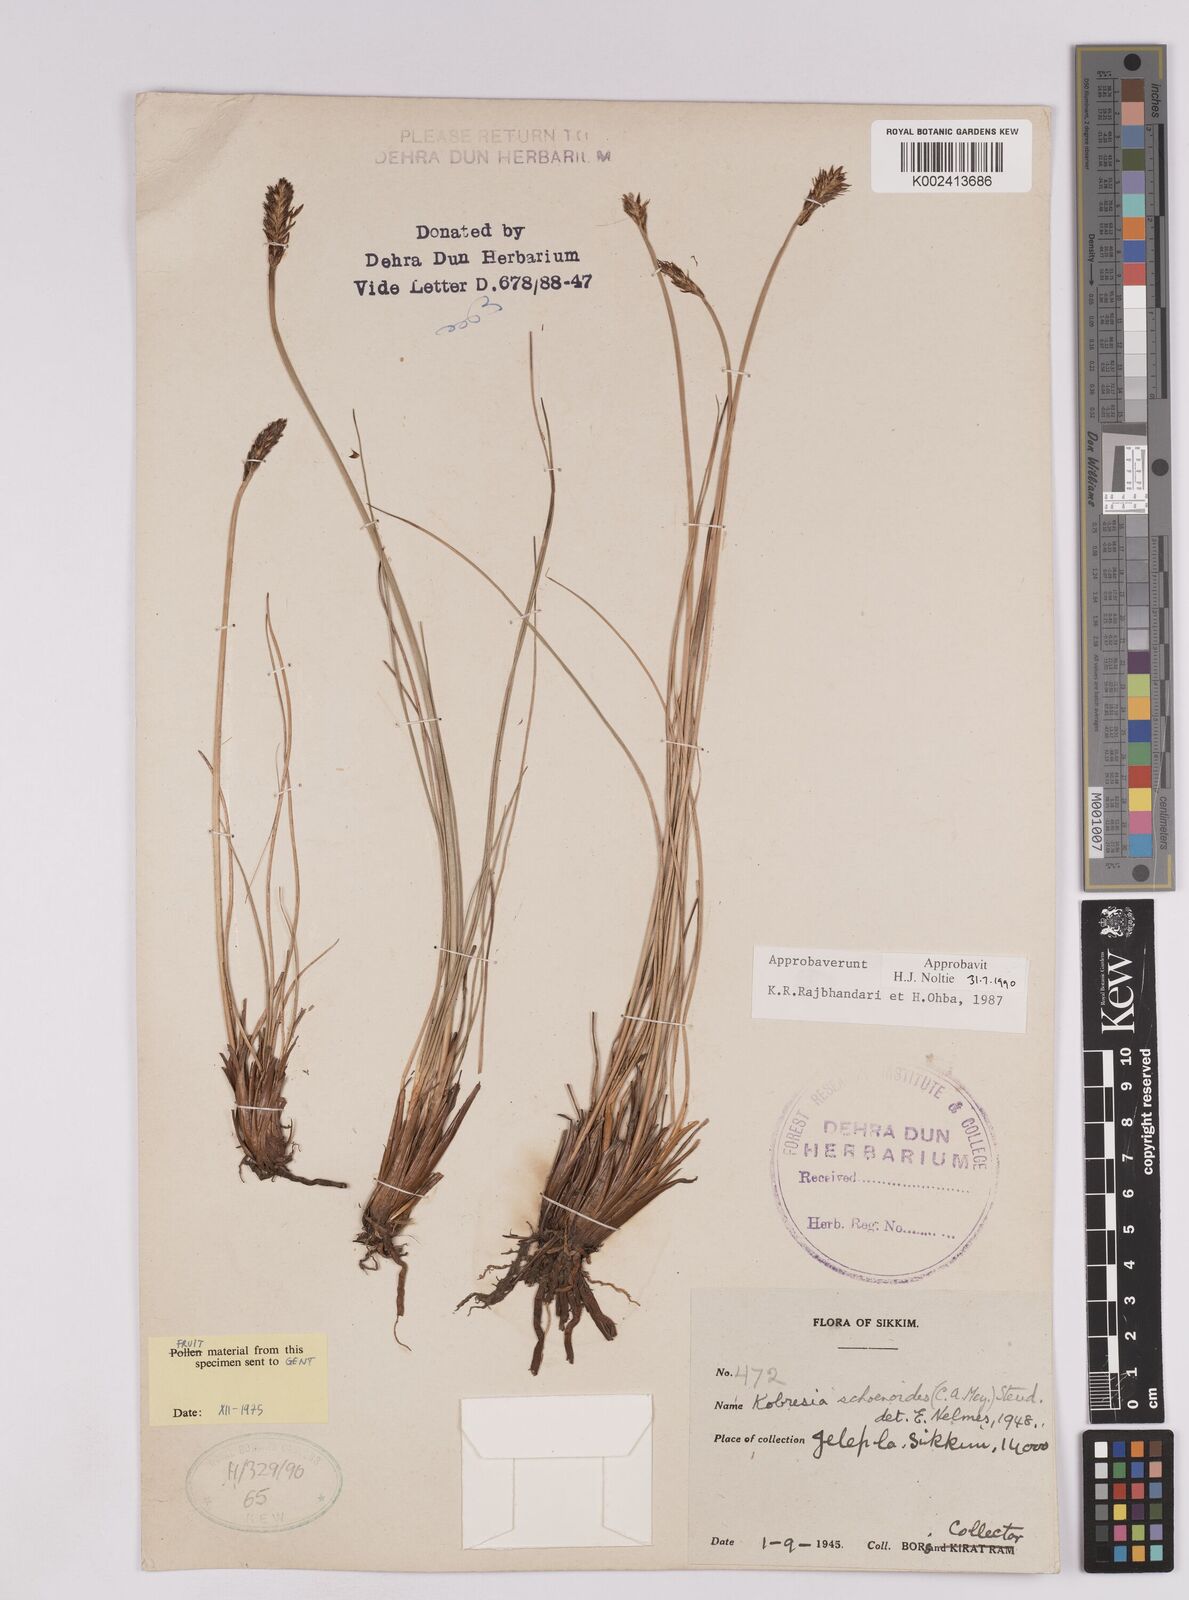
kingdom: Plantae
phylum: Tracheophyta
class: Liliopsida
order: Poales
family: Cyperaceae
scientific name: Cyperaceae
